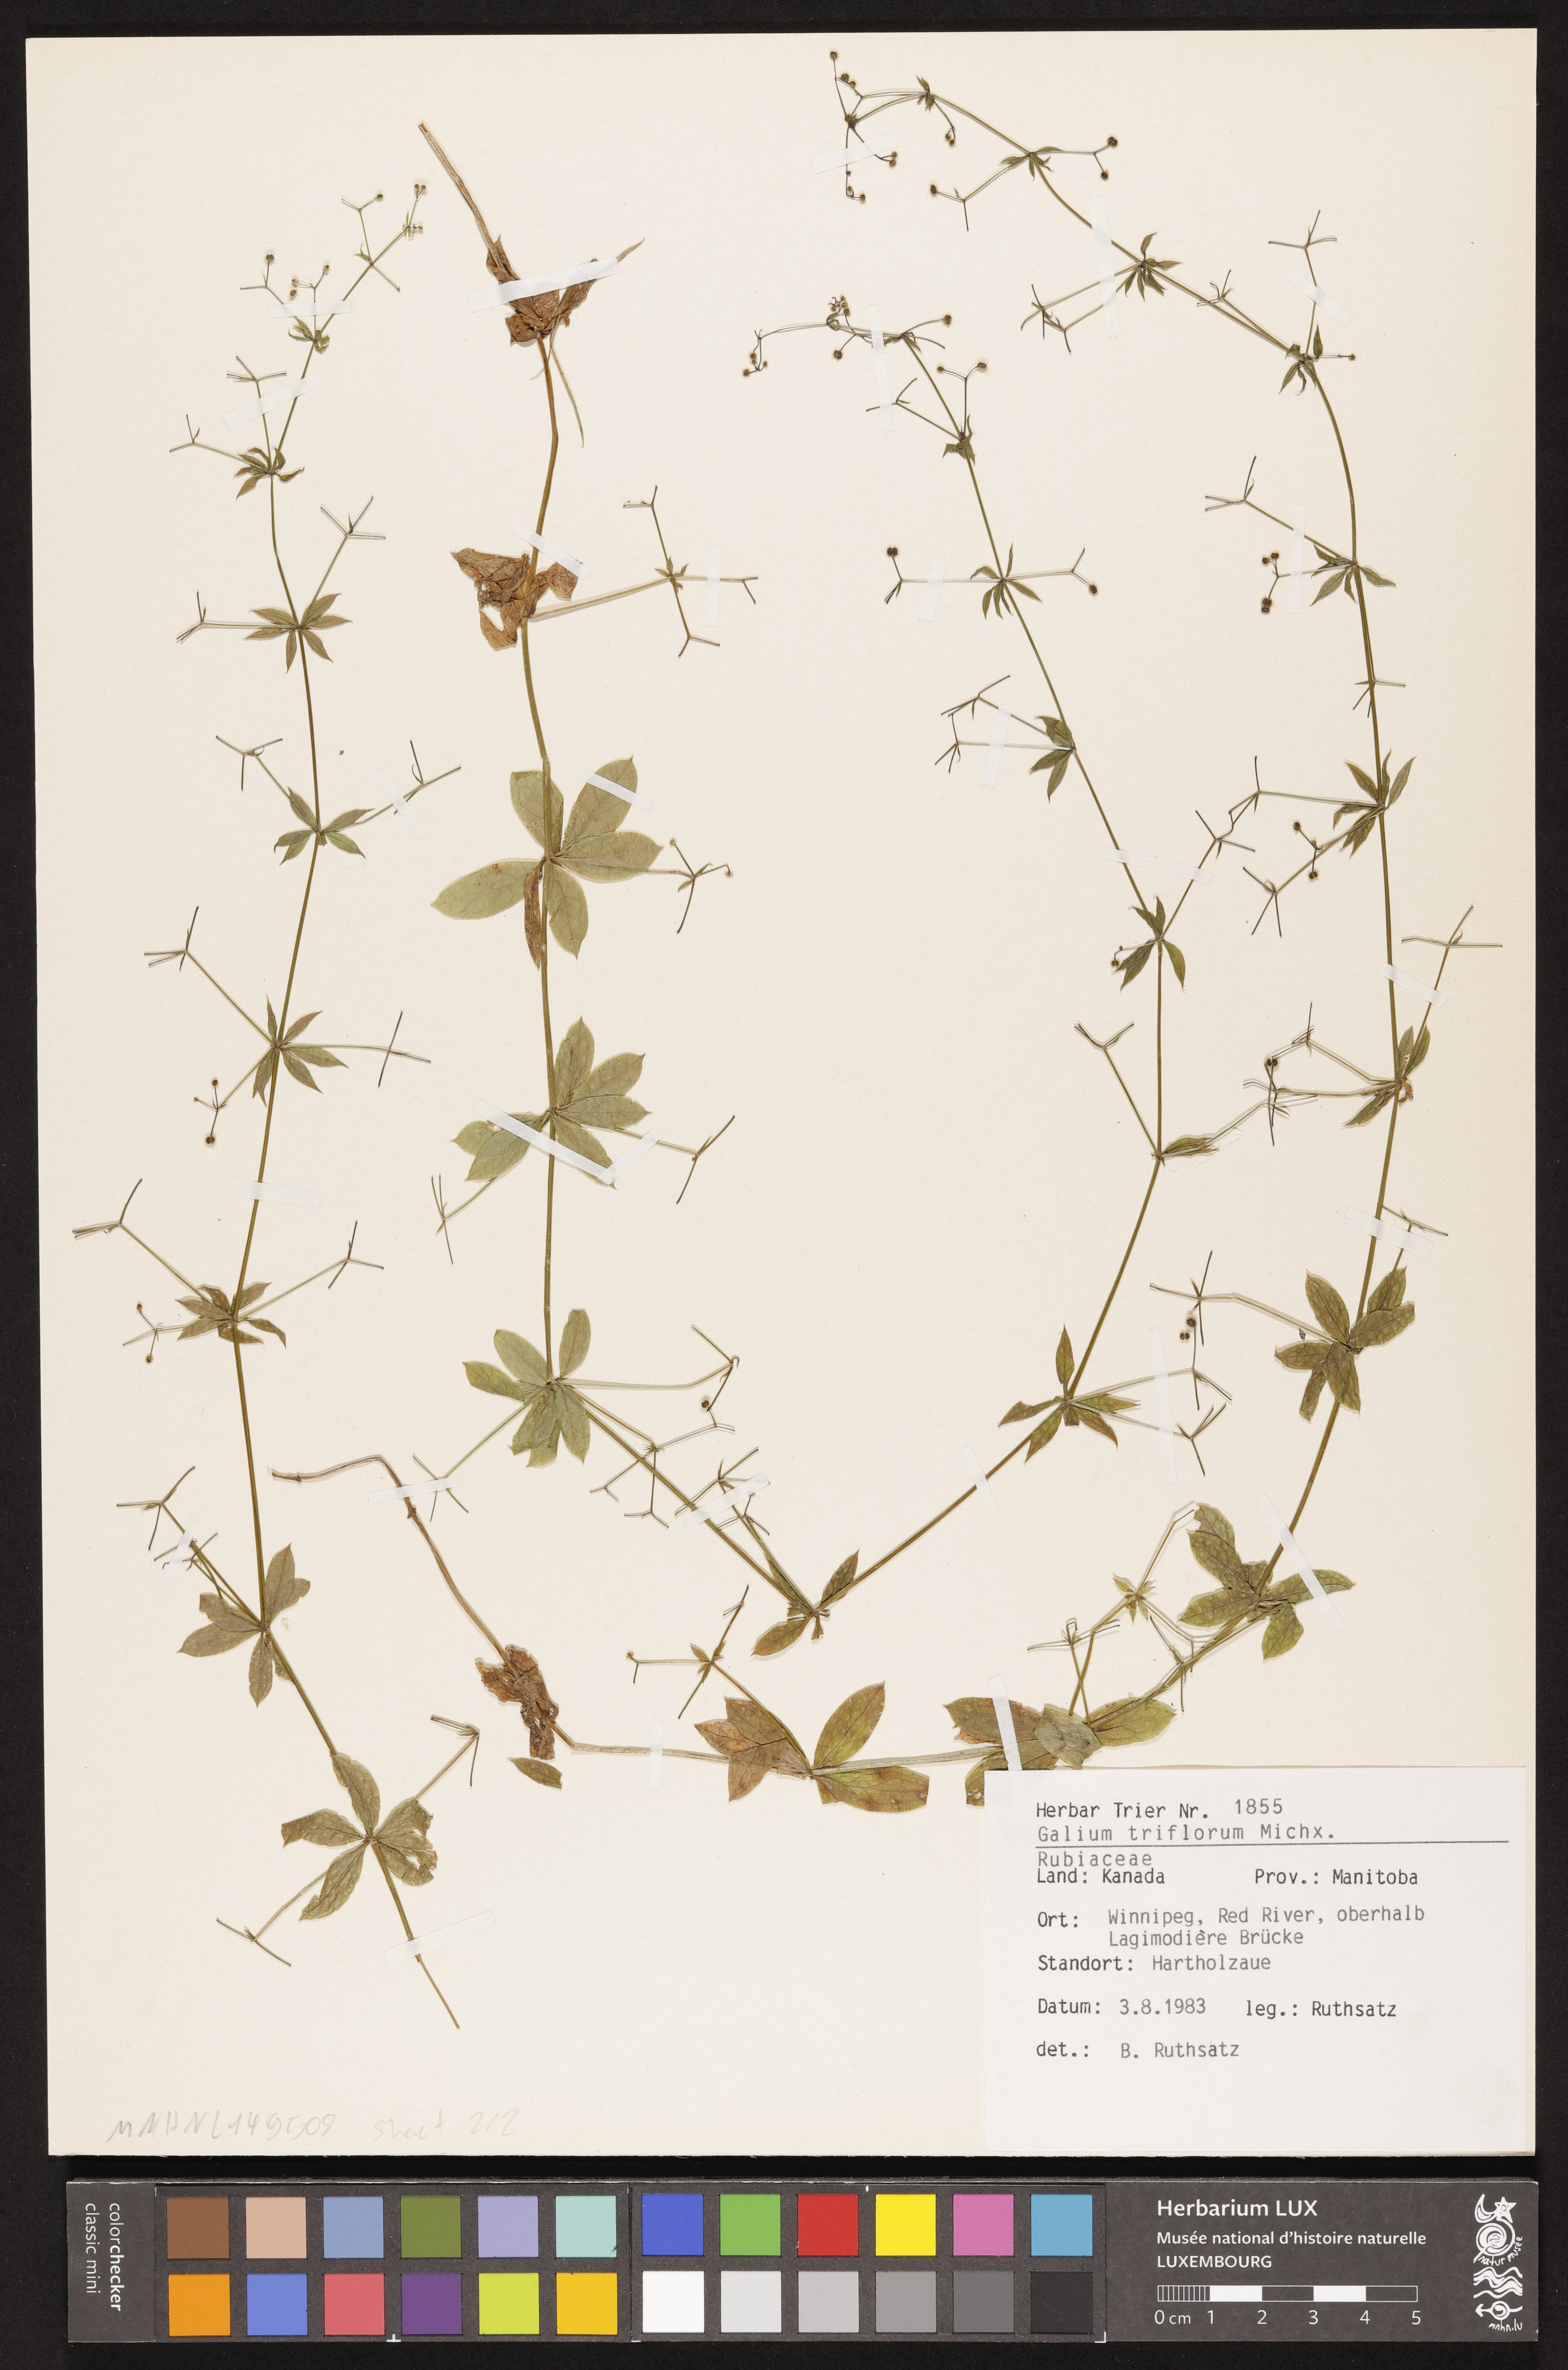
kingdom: Plantae
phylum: Tracheophyta
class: Magnoliopsida
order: Gentianales
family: Rubiaceae
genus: Galium
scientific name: Galium triflorum
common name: Fragrant bedstraw
